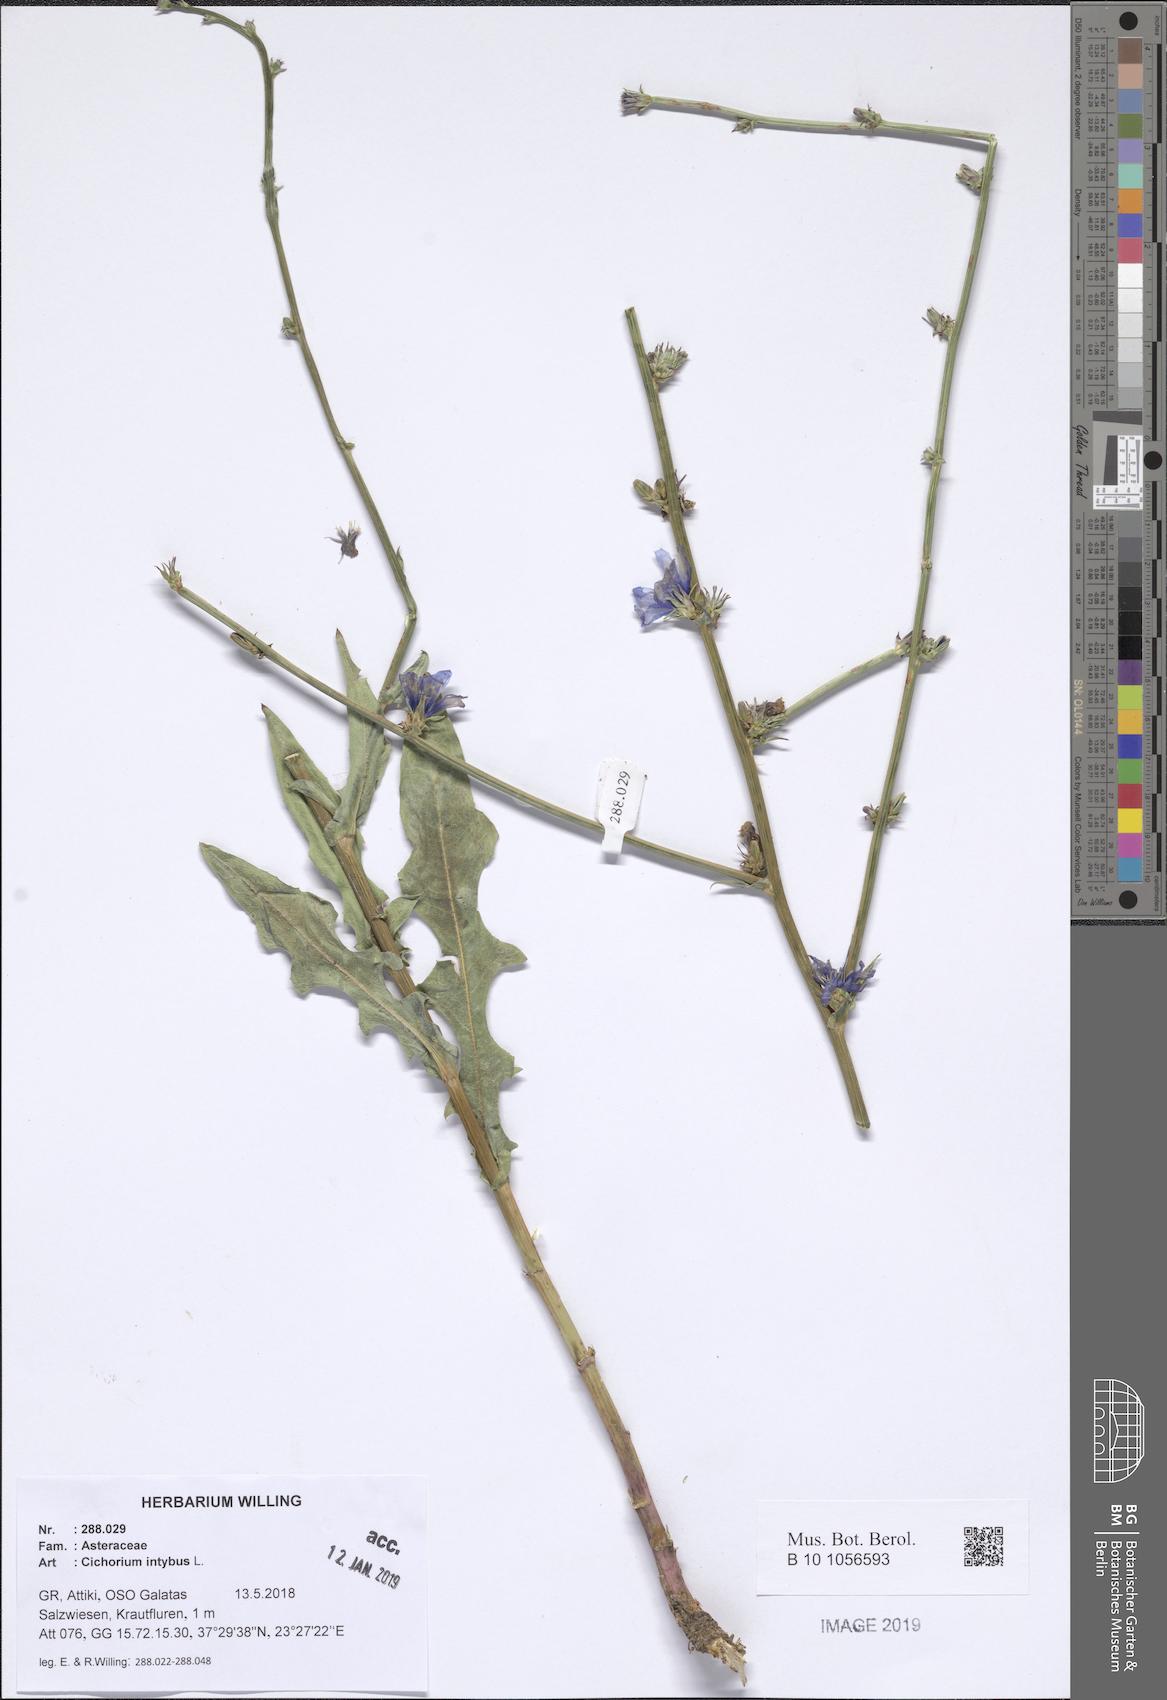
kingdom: Plantae
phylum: Tracheophyta
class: Magnoliopsida
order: Asterales
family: Asteraceae
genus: Cichorium
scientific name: Cichorium intybus
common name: Chicory
